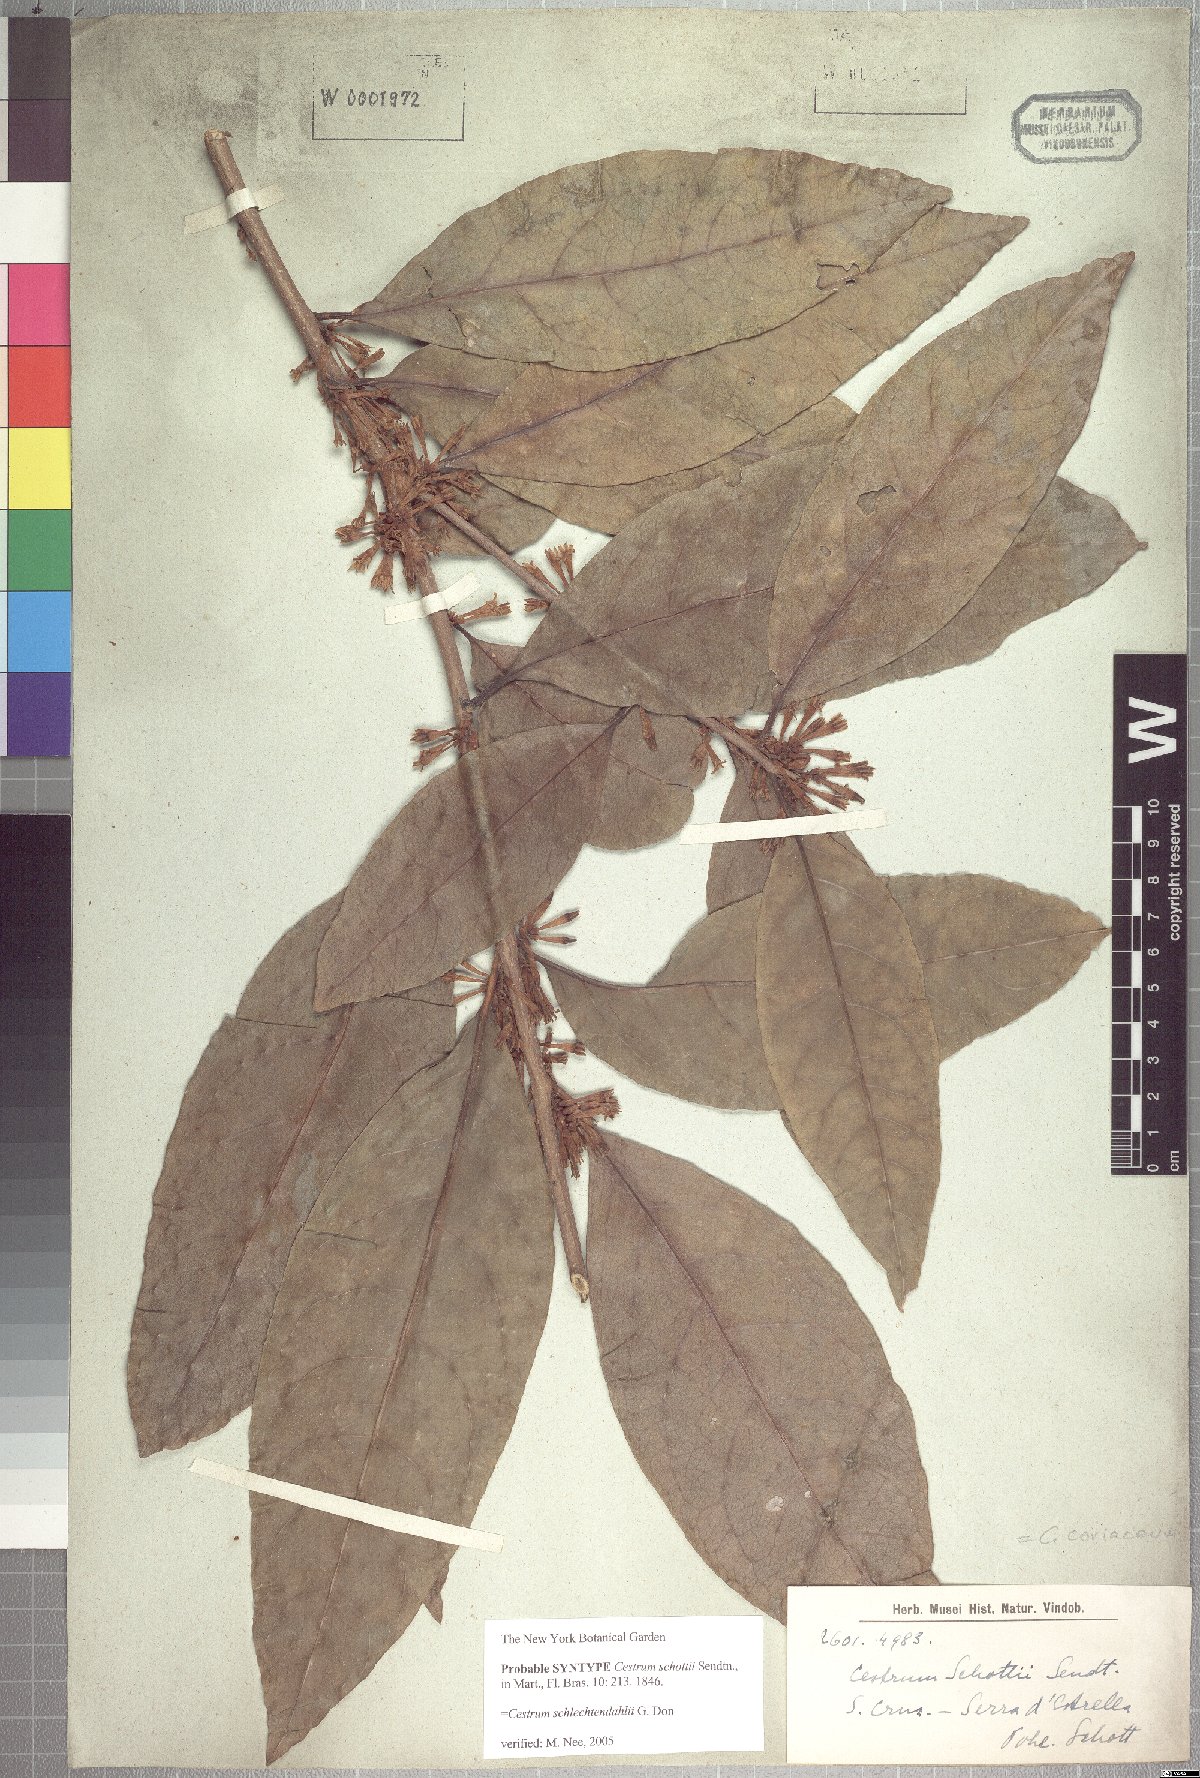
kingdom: Plantae
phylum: Tracheophyta
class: Magnoliopsida
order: Solanales
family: Solanaceae
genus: Cestrum
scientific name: Cestrum coriaceum
